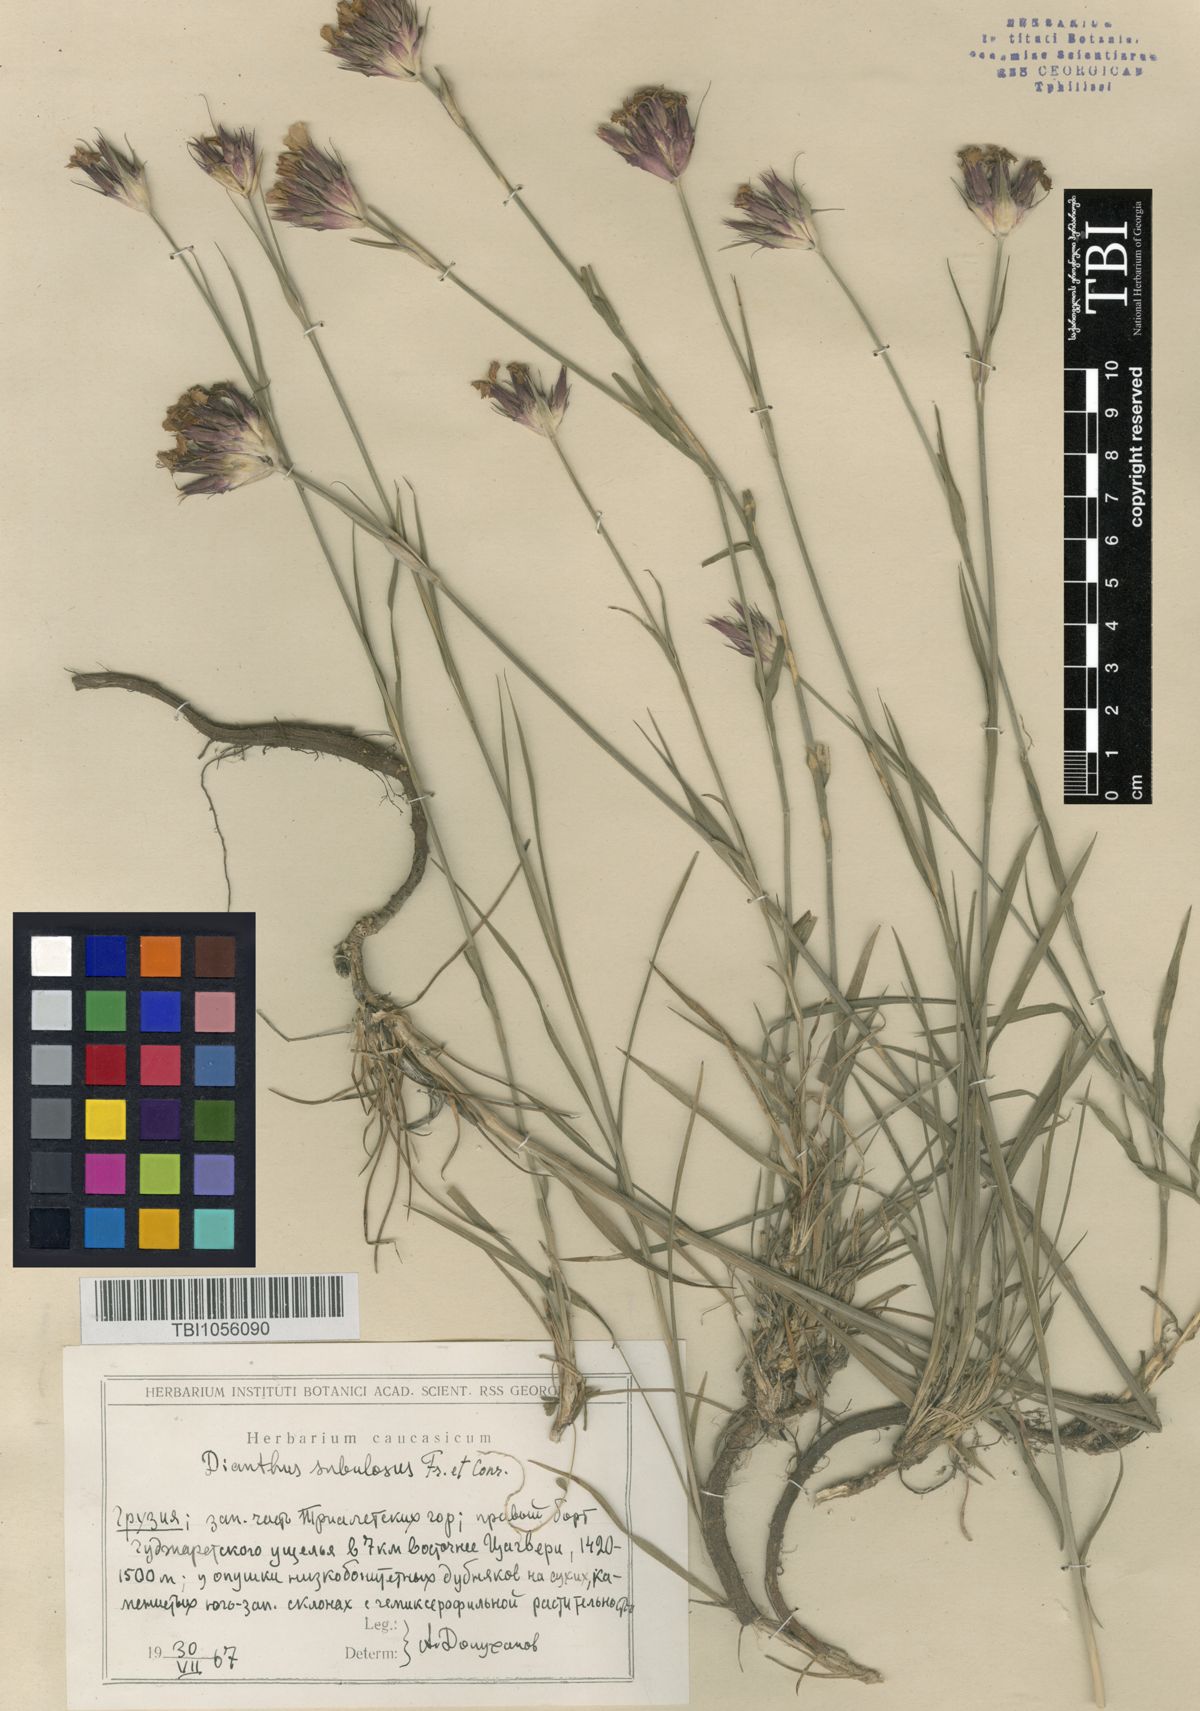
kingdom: Plantae
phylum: Tracheophyta
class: Magnoliopsida
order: Caryophyllales
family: Caryophyllaceae
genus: Dianthus
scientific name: Dianthus subulosus
